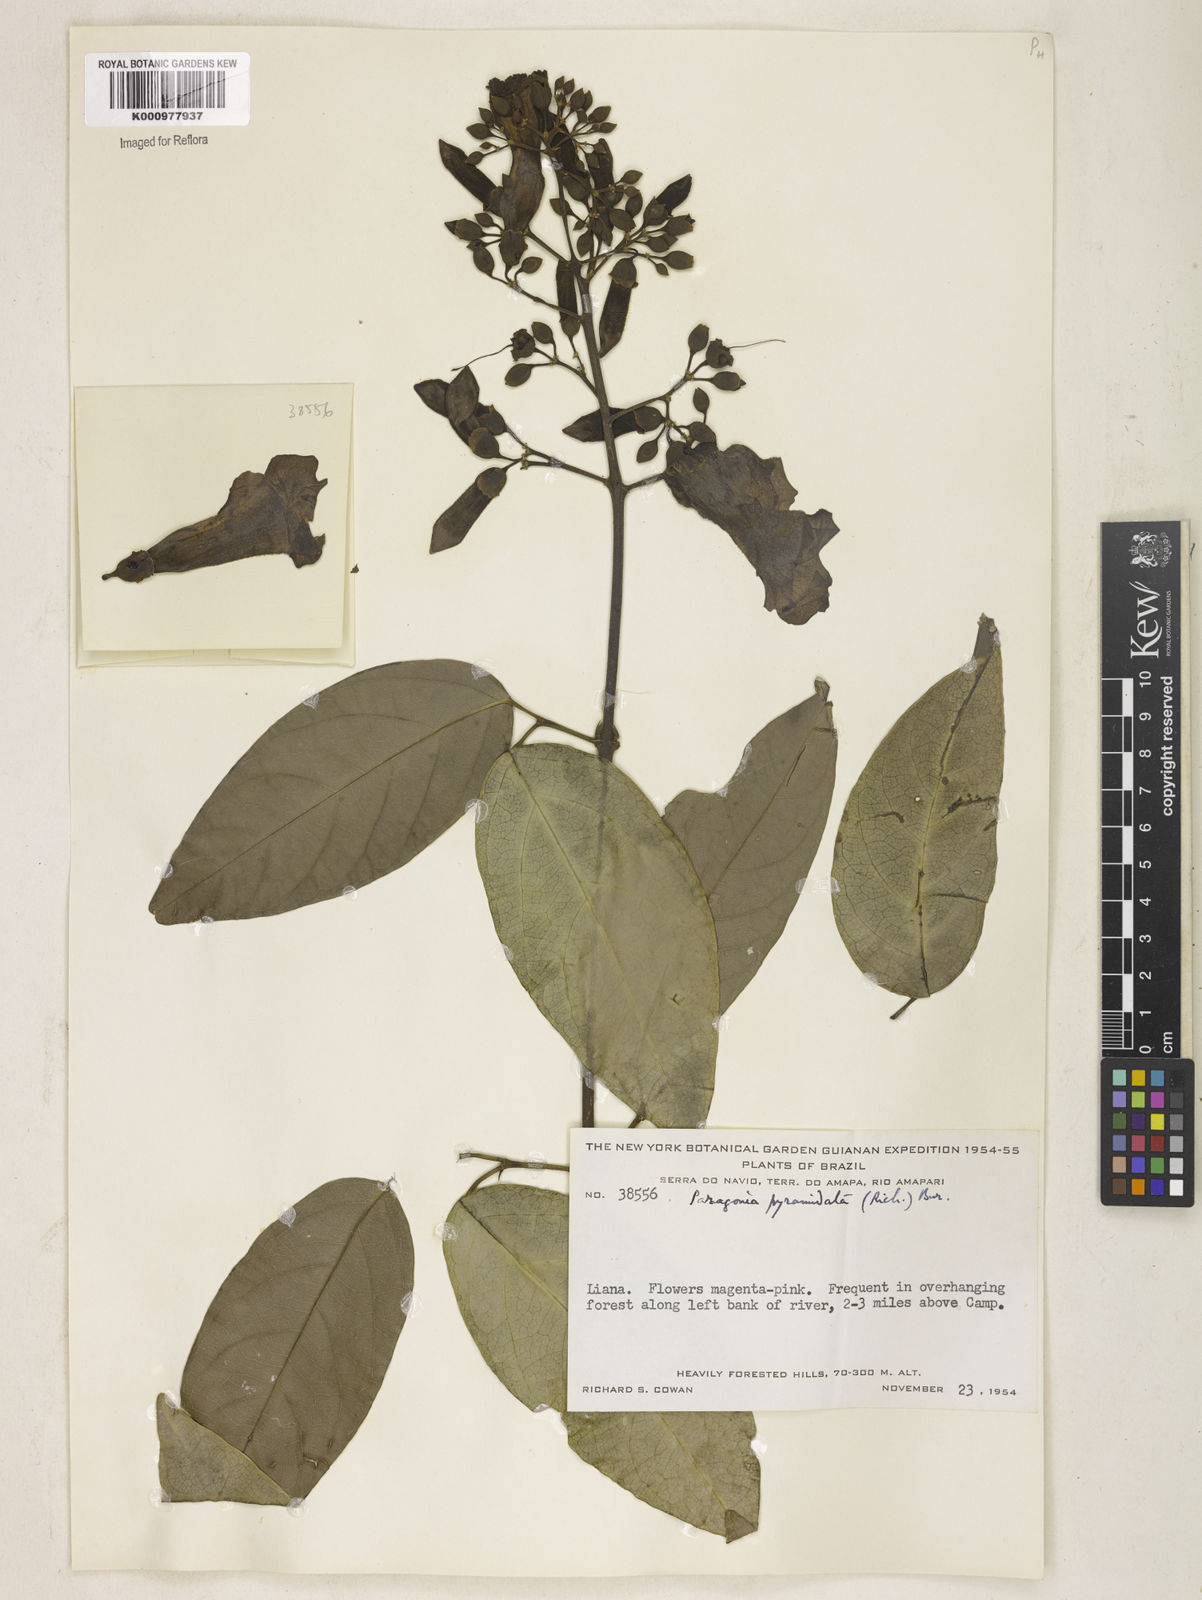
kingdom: Plantae
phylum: Tracheophyta
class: Magnoliopsida
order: Lamiales
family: Bignoniaceae
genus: Tanaecium
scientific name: Tanaecium pyramidatum
